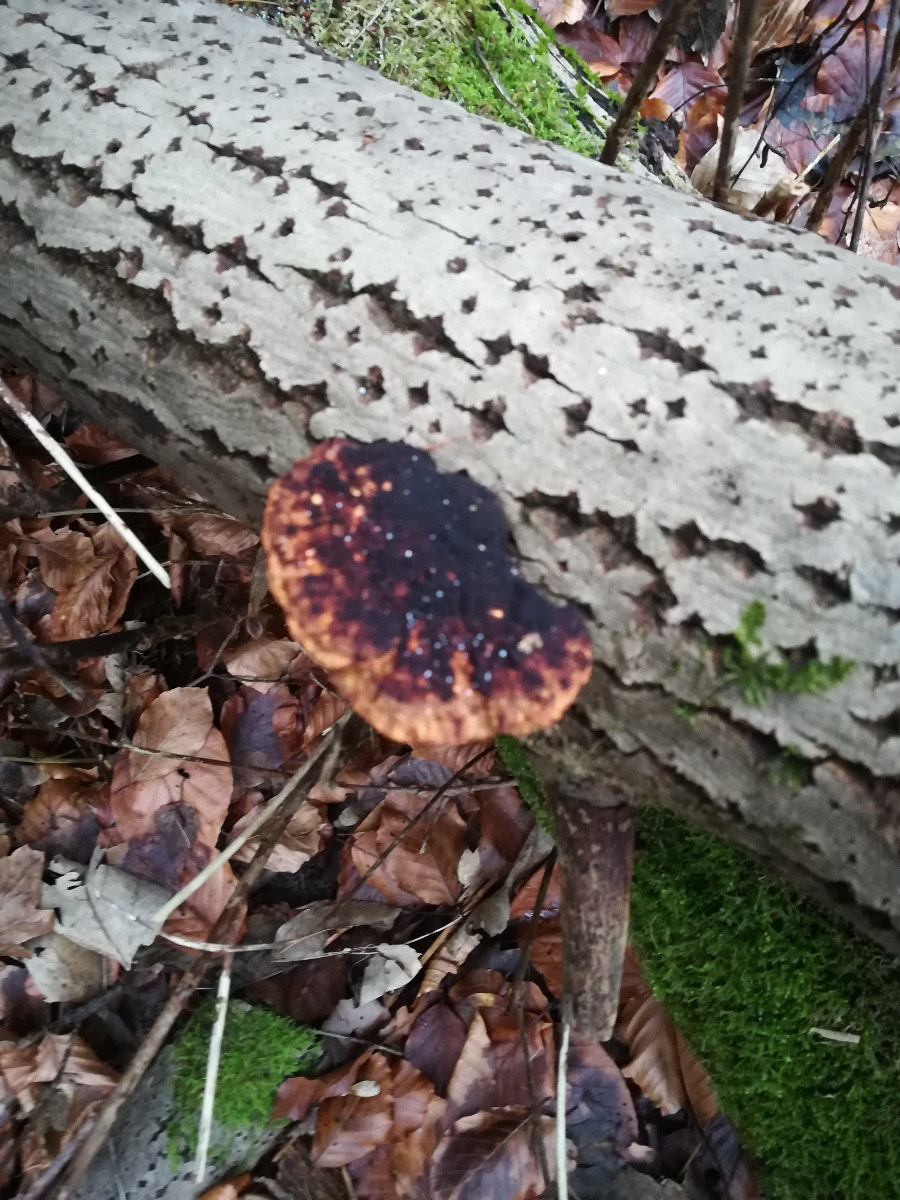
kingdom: Fungi
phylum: Basidiomycota
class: Agaricomycetes
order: Polyporales
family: Polyporaceae
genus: Daedaleopsis
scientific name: Daedaleopsis confragosa
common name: rødmende læderporesvamp
